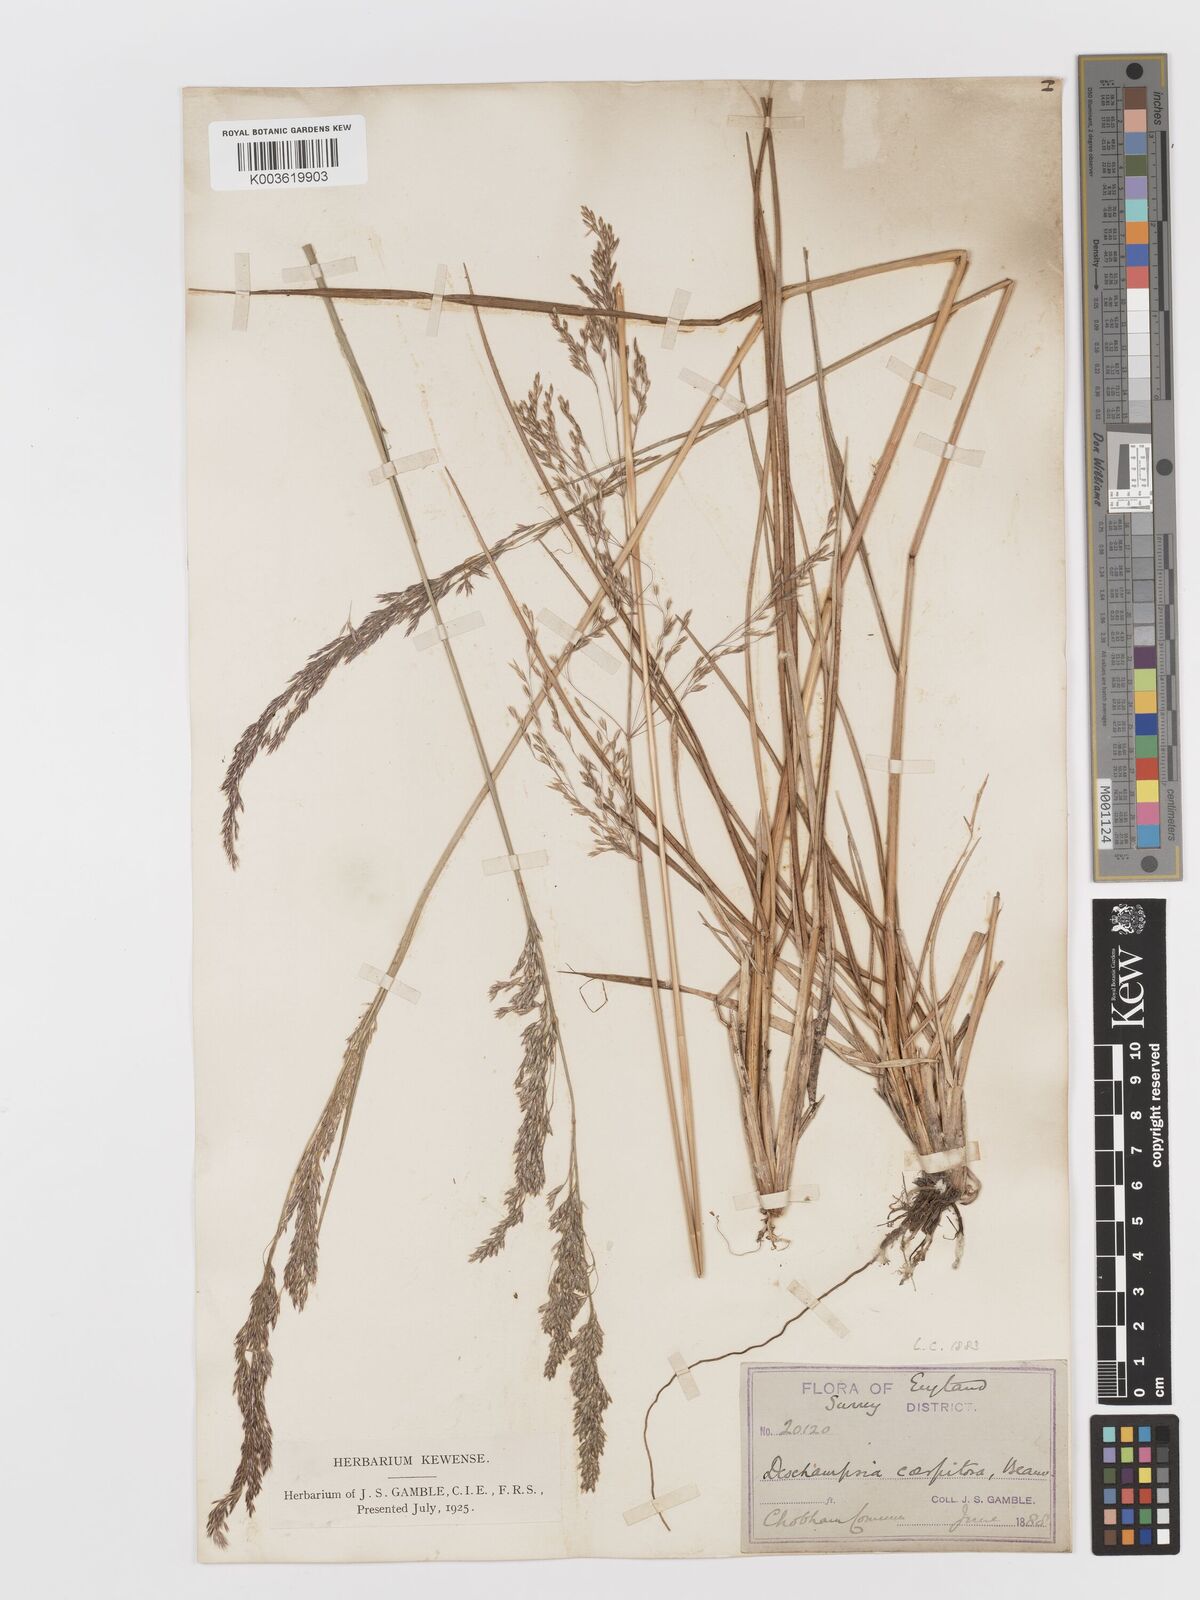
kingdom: Plantae
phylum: Tracheophyta
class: Liliopsida
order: Poales
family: Poaceae
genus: Deschampsia
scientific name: Deschampsia
